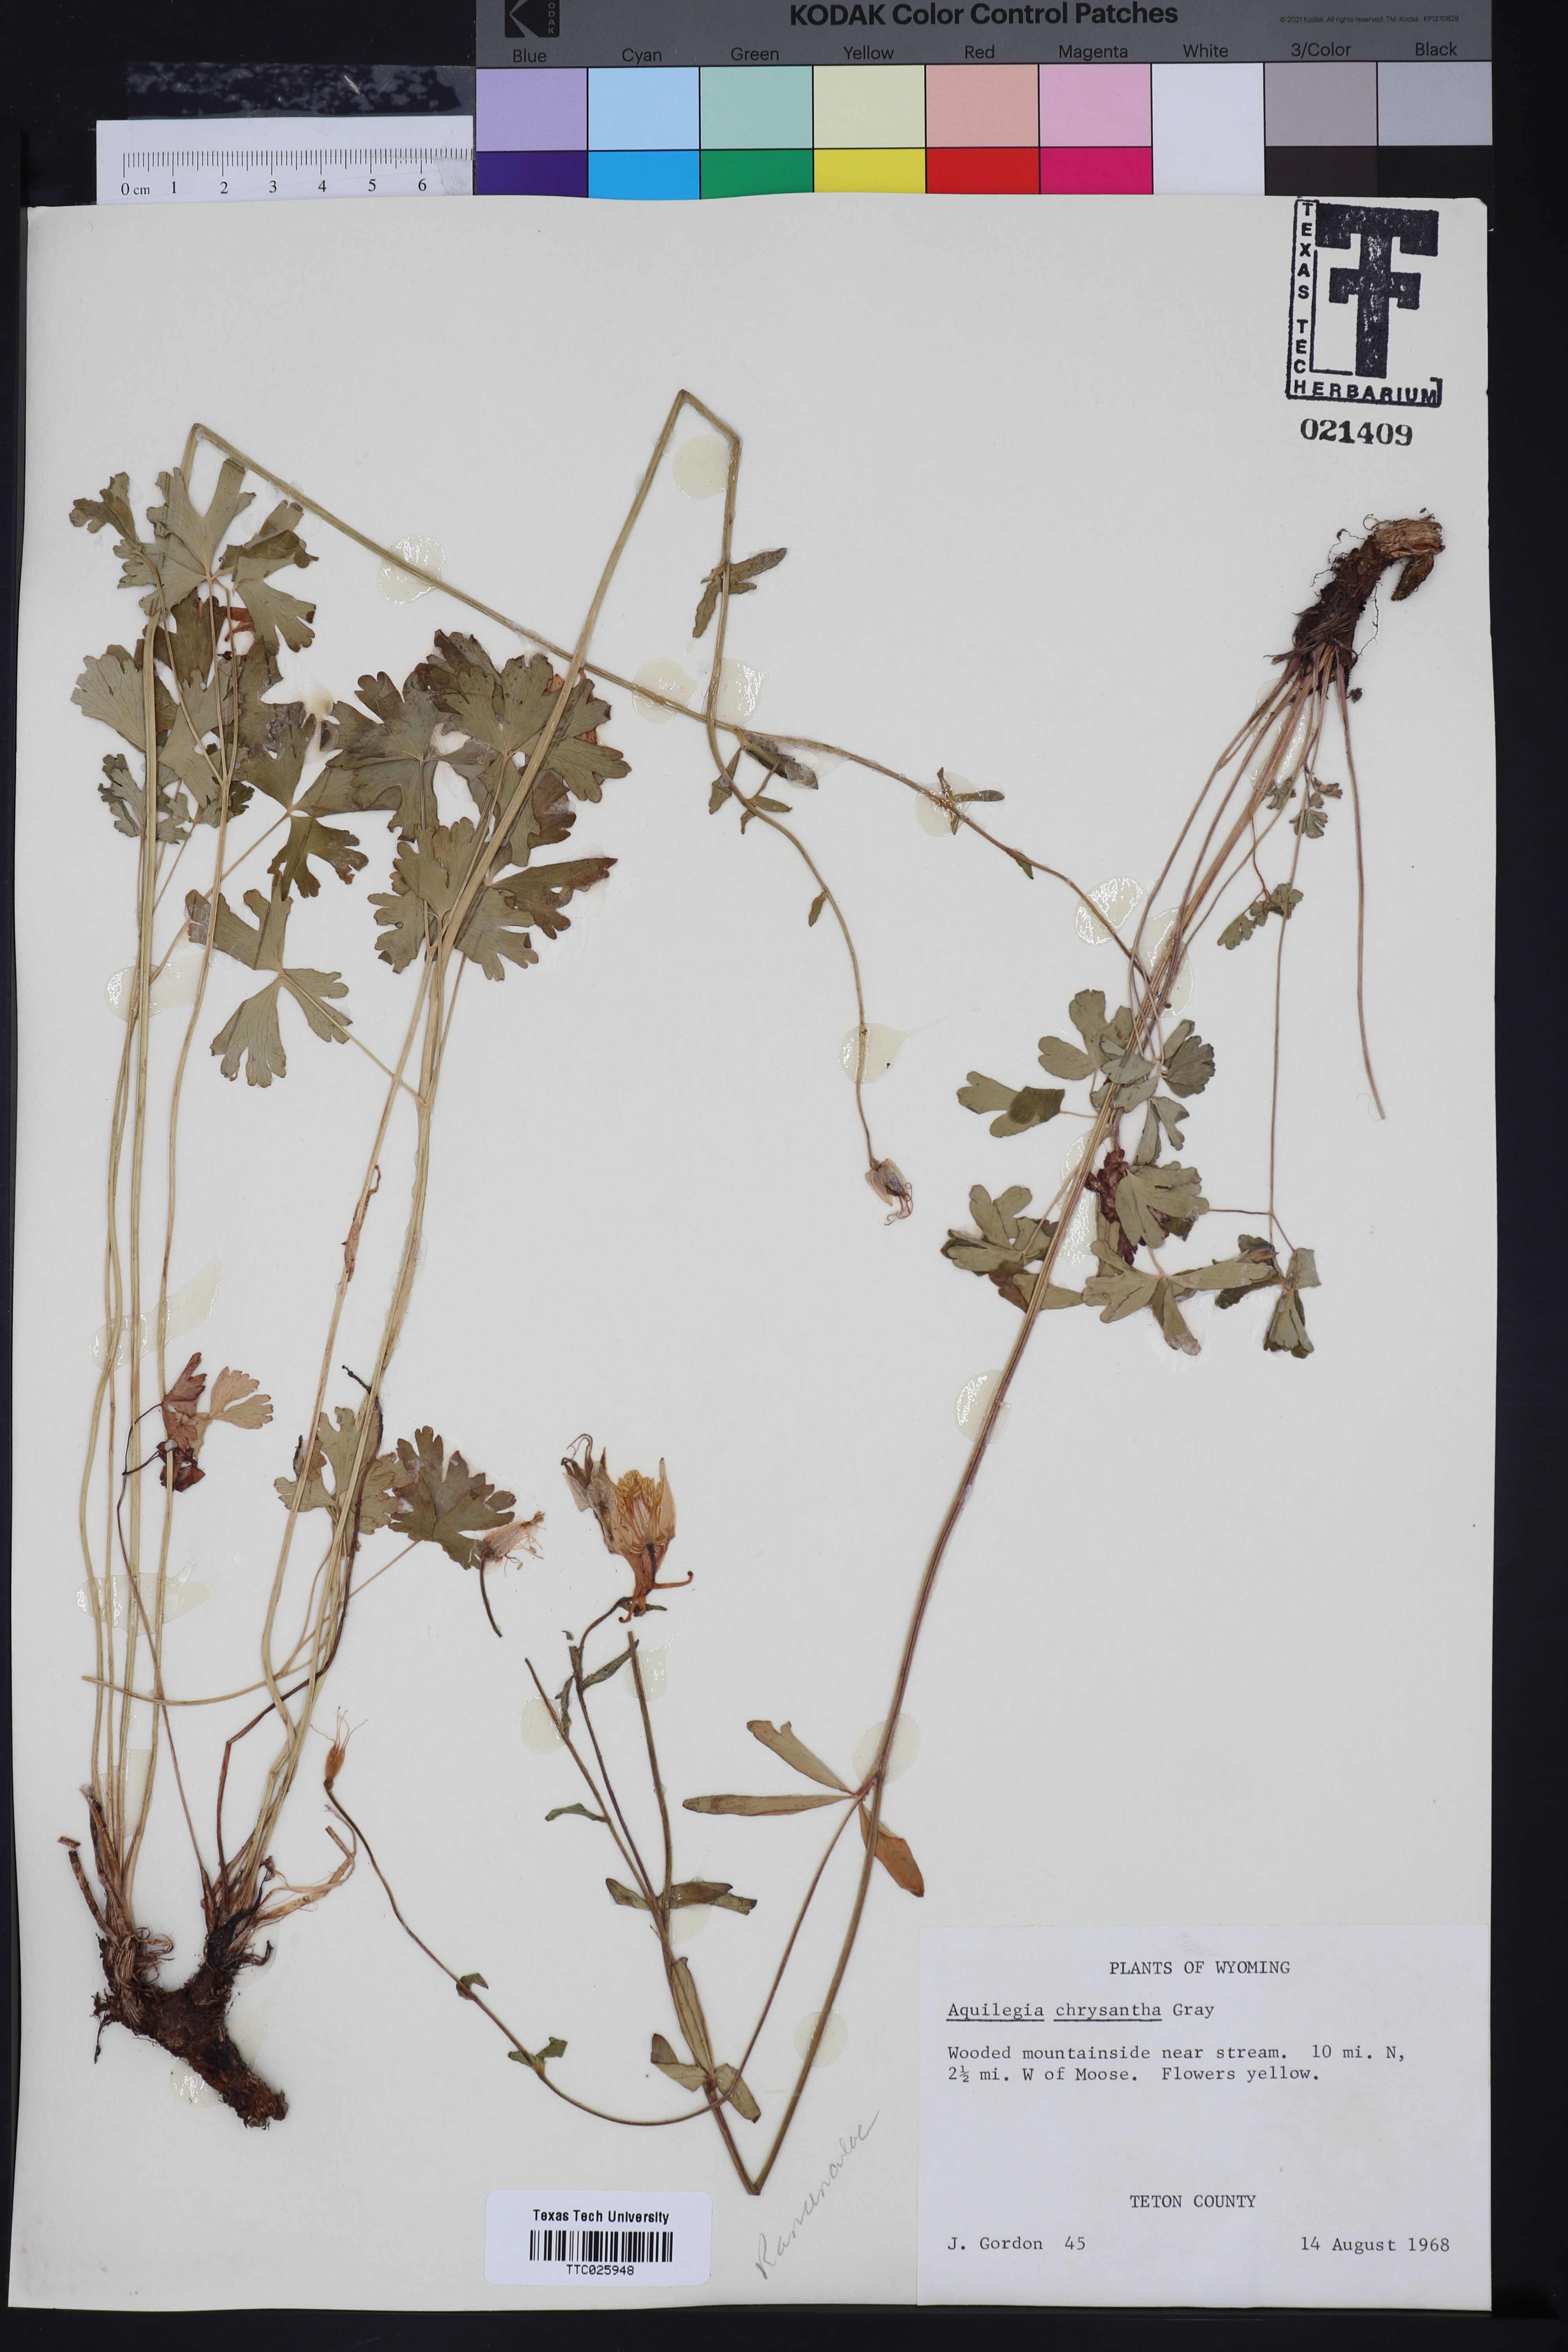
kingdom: Plantae
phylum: Tracheophyta
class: Magnoliopsida
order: Ranunculales
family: Ranunculaceae
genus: Aquilegia
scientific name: Aquilegia chrysantha
